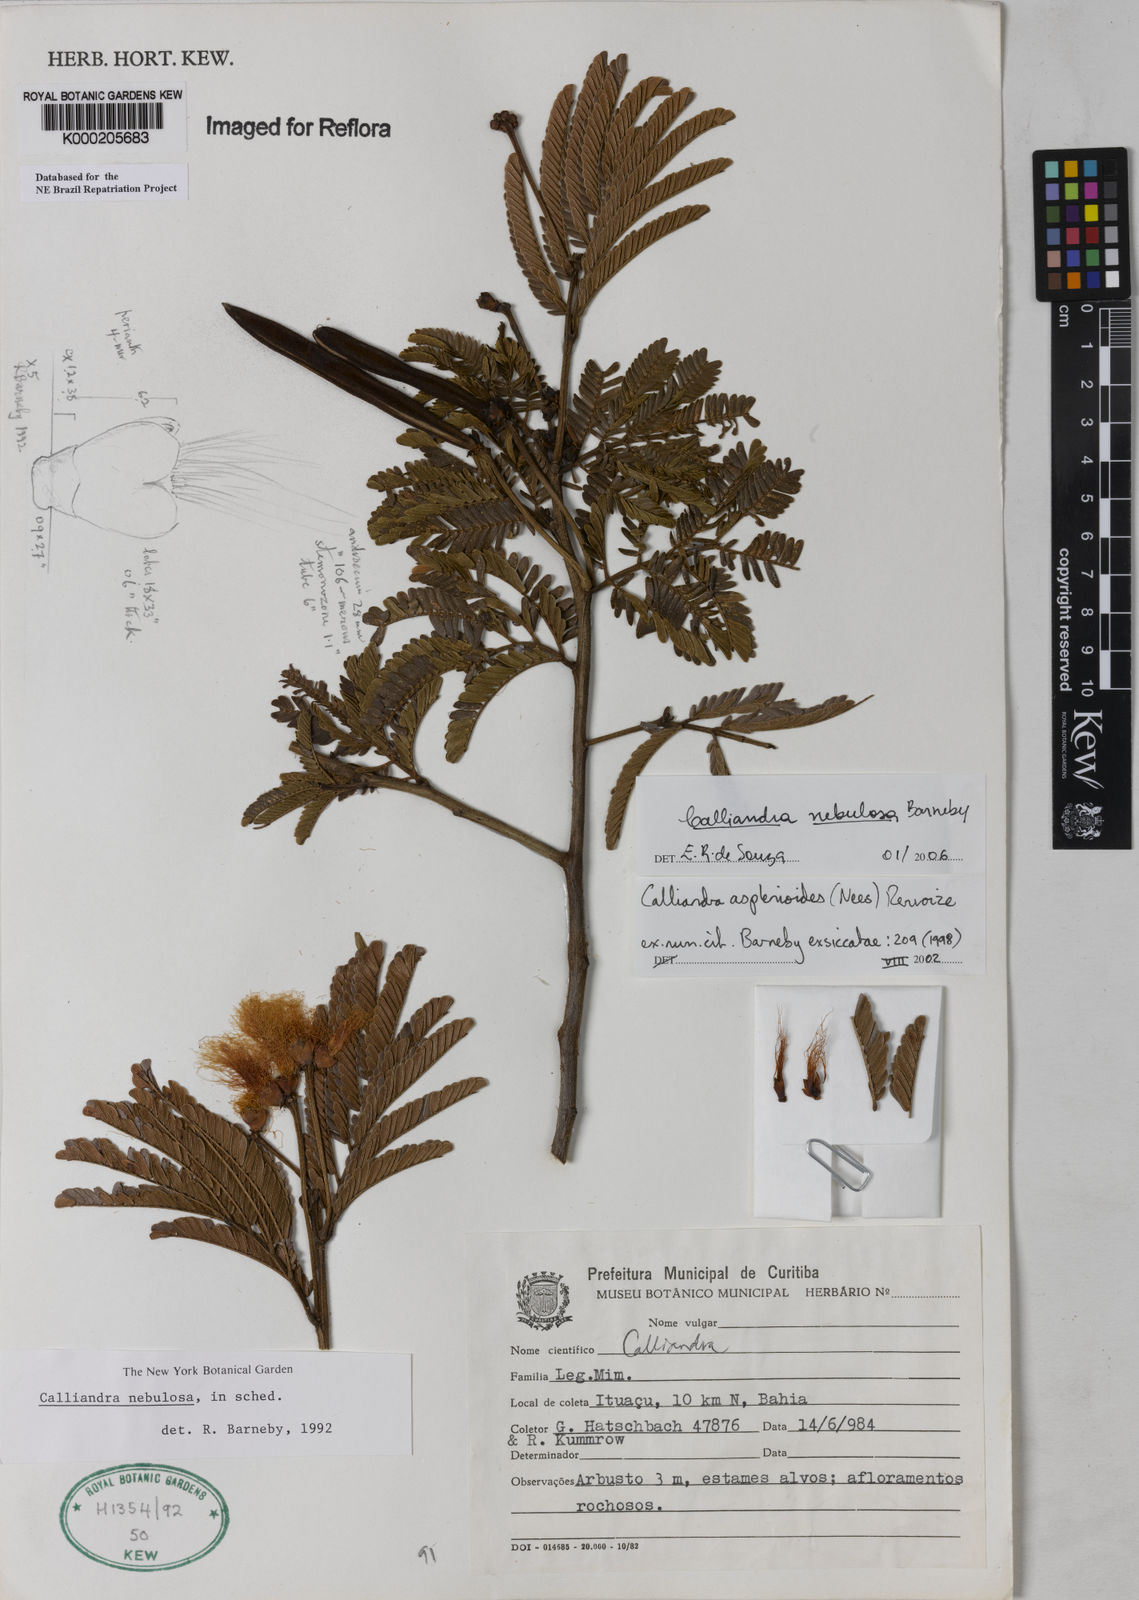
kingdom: Plantae
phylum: Tracheophyta
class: Magnoliopsida
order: Fabales
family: Fabaceae
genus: Calliandra
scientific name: Calliandra
